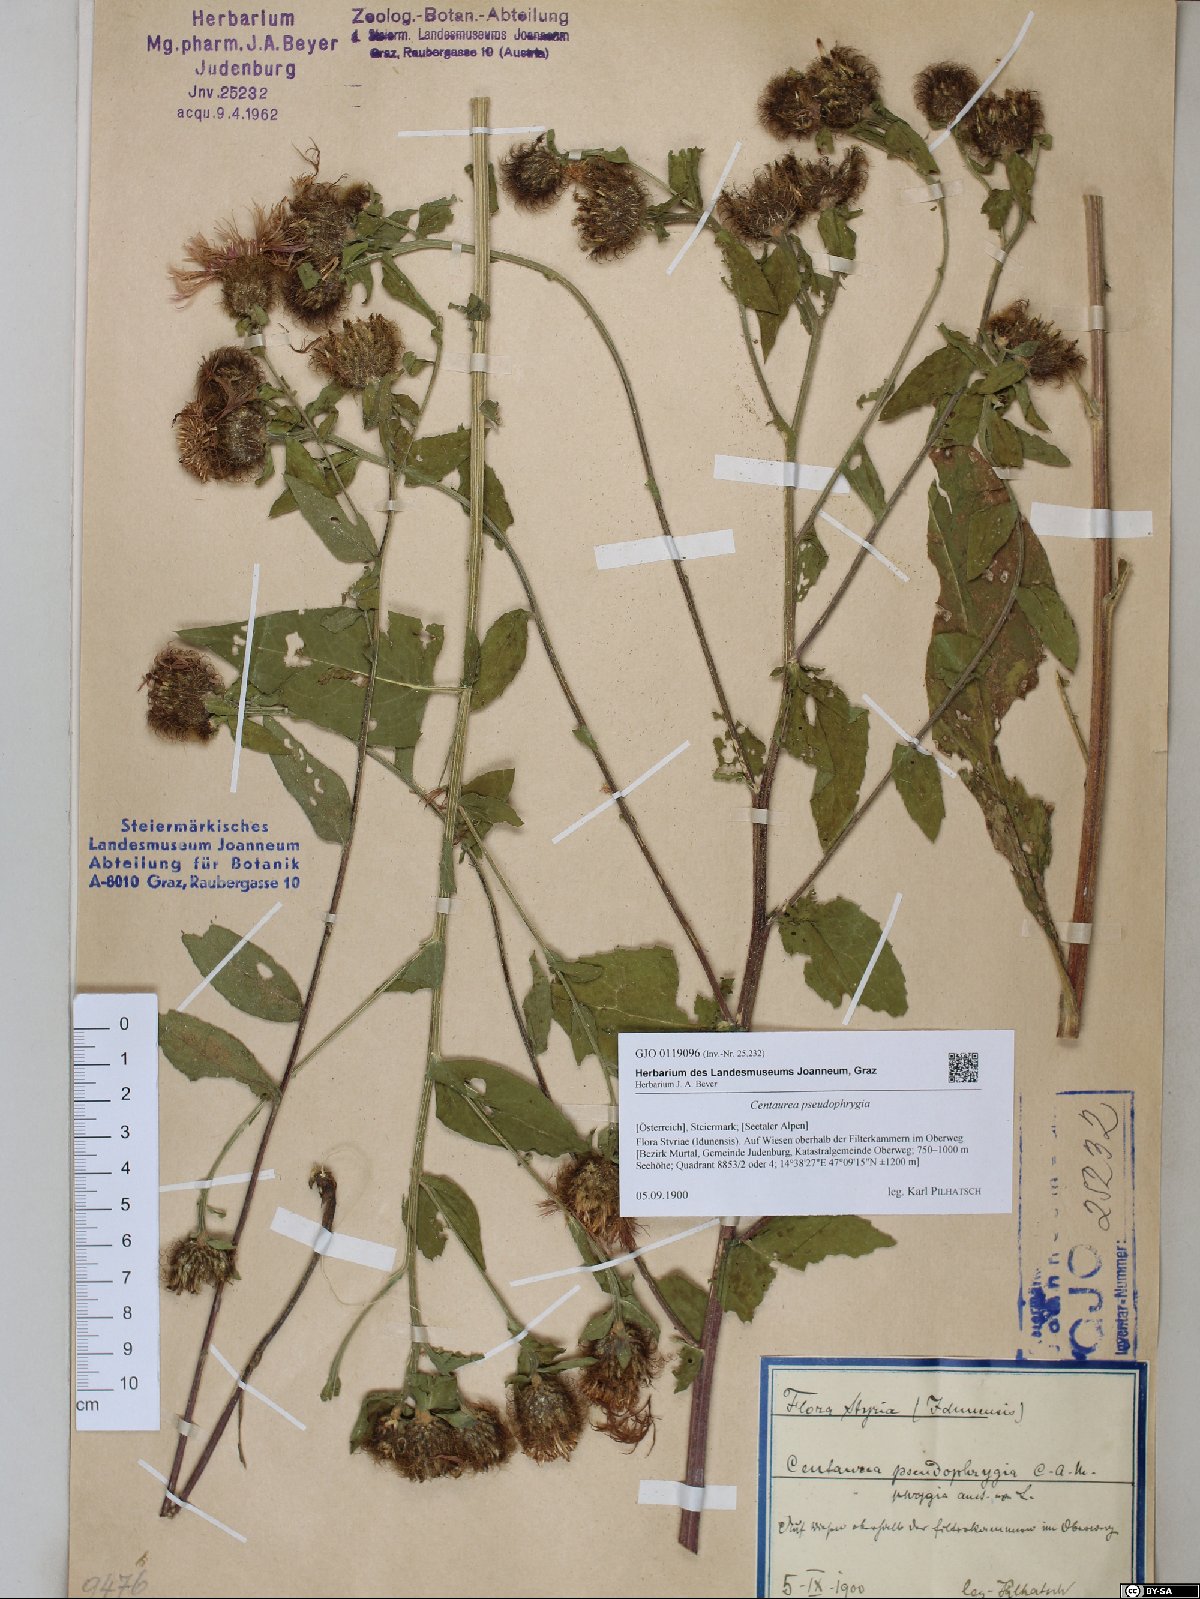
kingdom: Plantae
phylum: Tracheophyta
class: Magnoliopsida
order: Asterales
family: Asteraceae
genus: Centaurea
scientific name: Centaurea pseudophrygia
